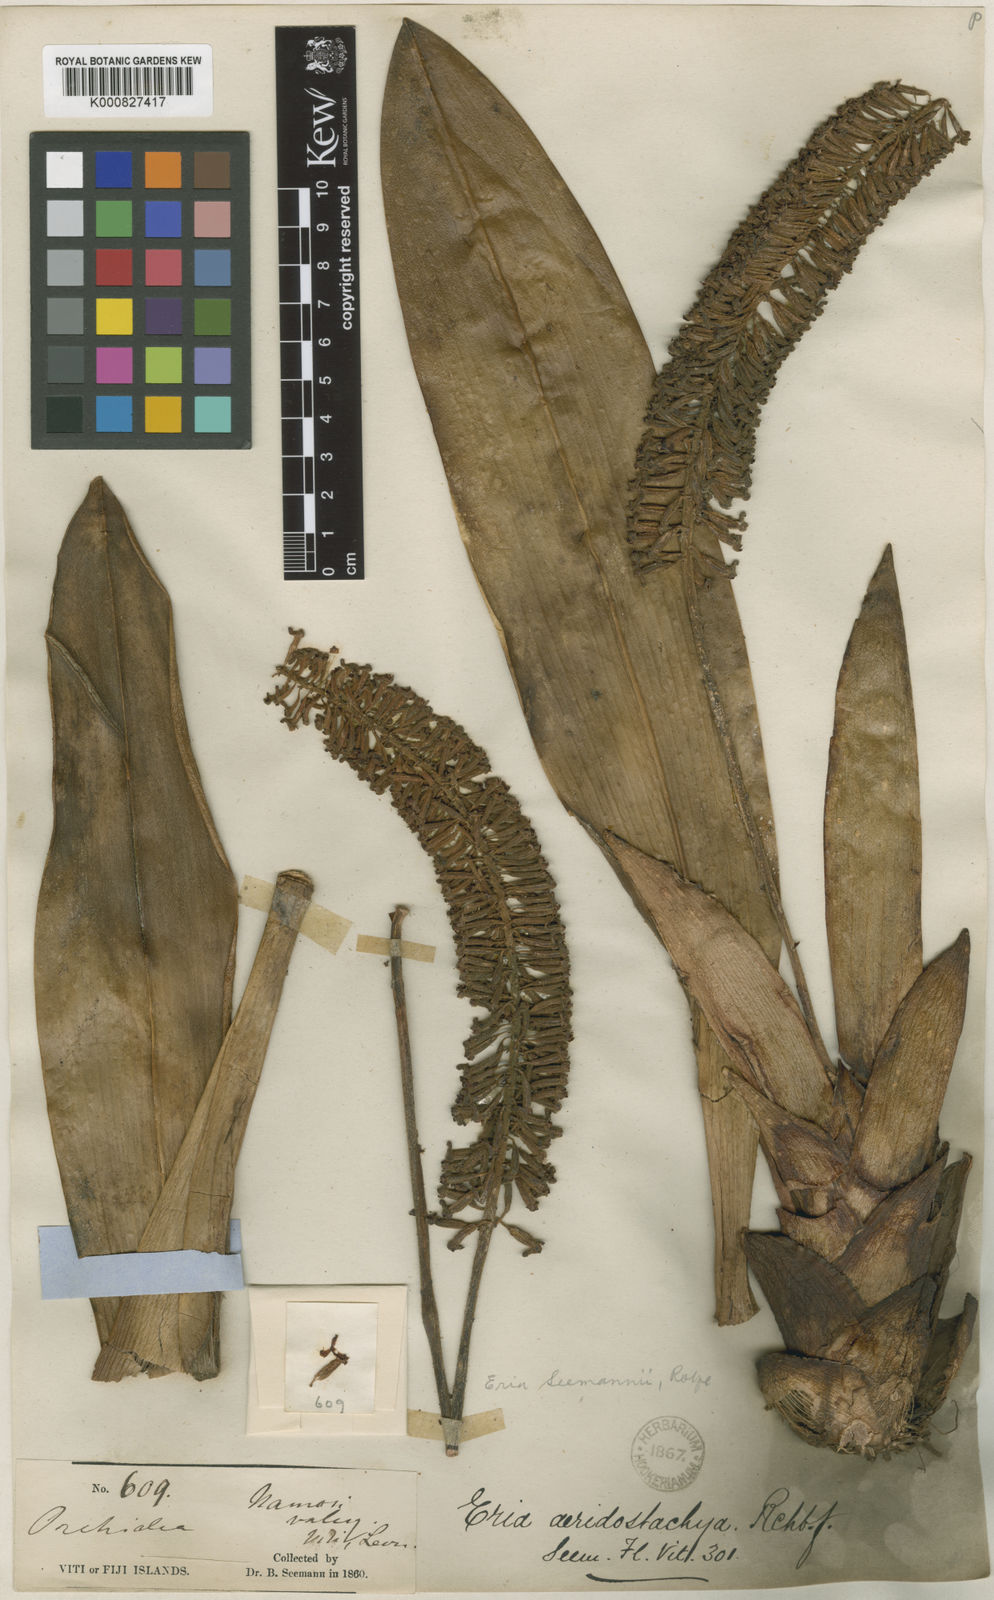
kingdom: Plantae
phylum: Tracheophyta
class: Liliopsida
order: Asparagales
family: Orchidaceae
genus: Aeridostachya
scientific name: Aeridostachya robusta
